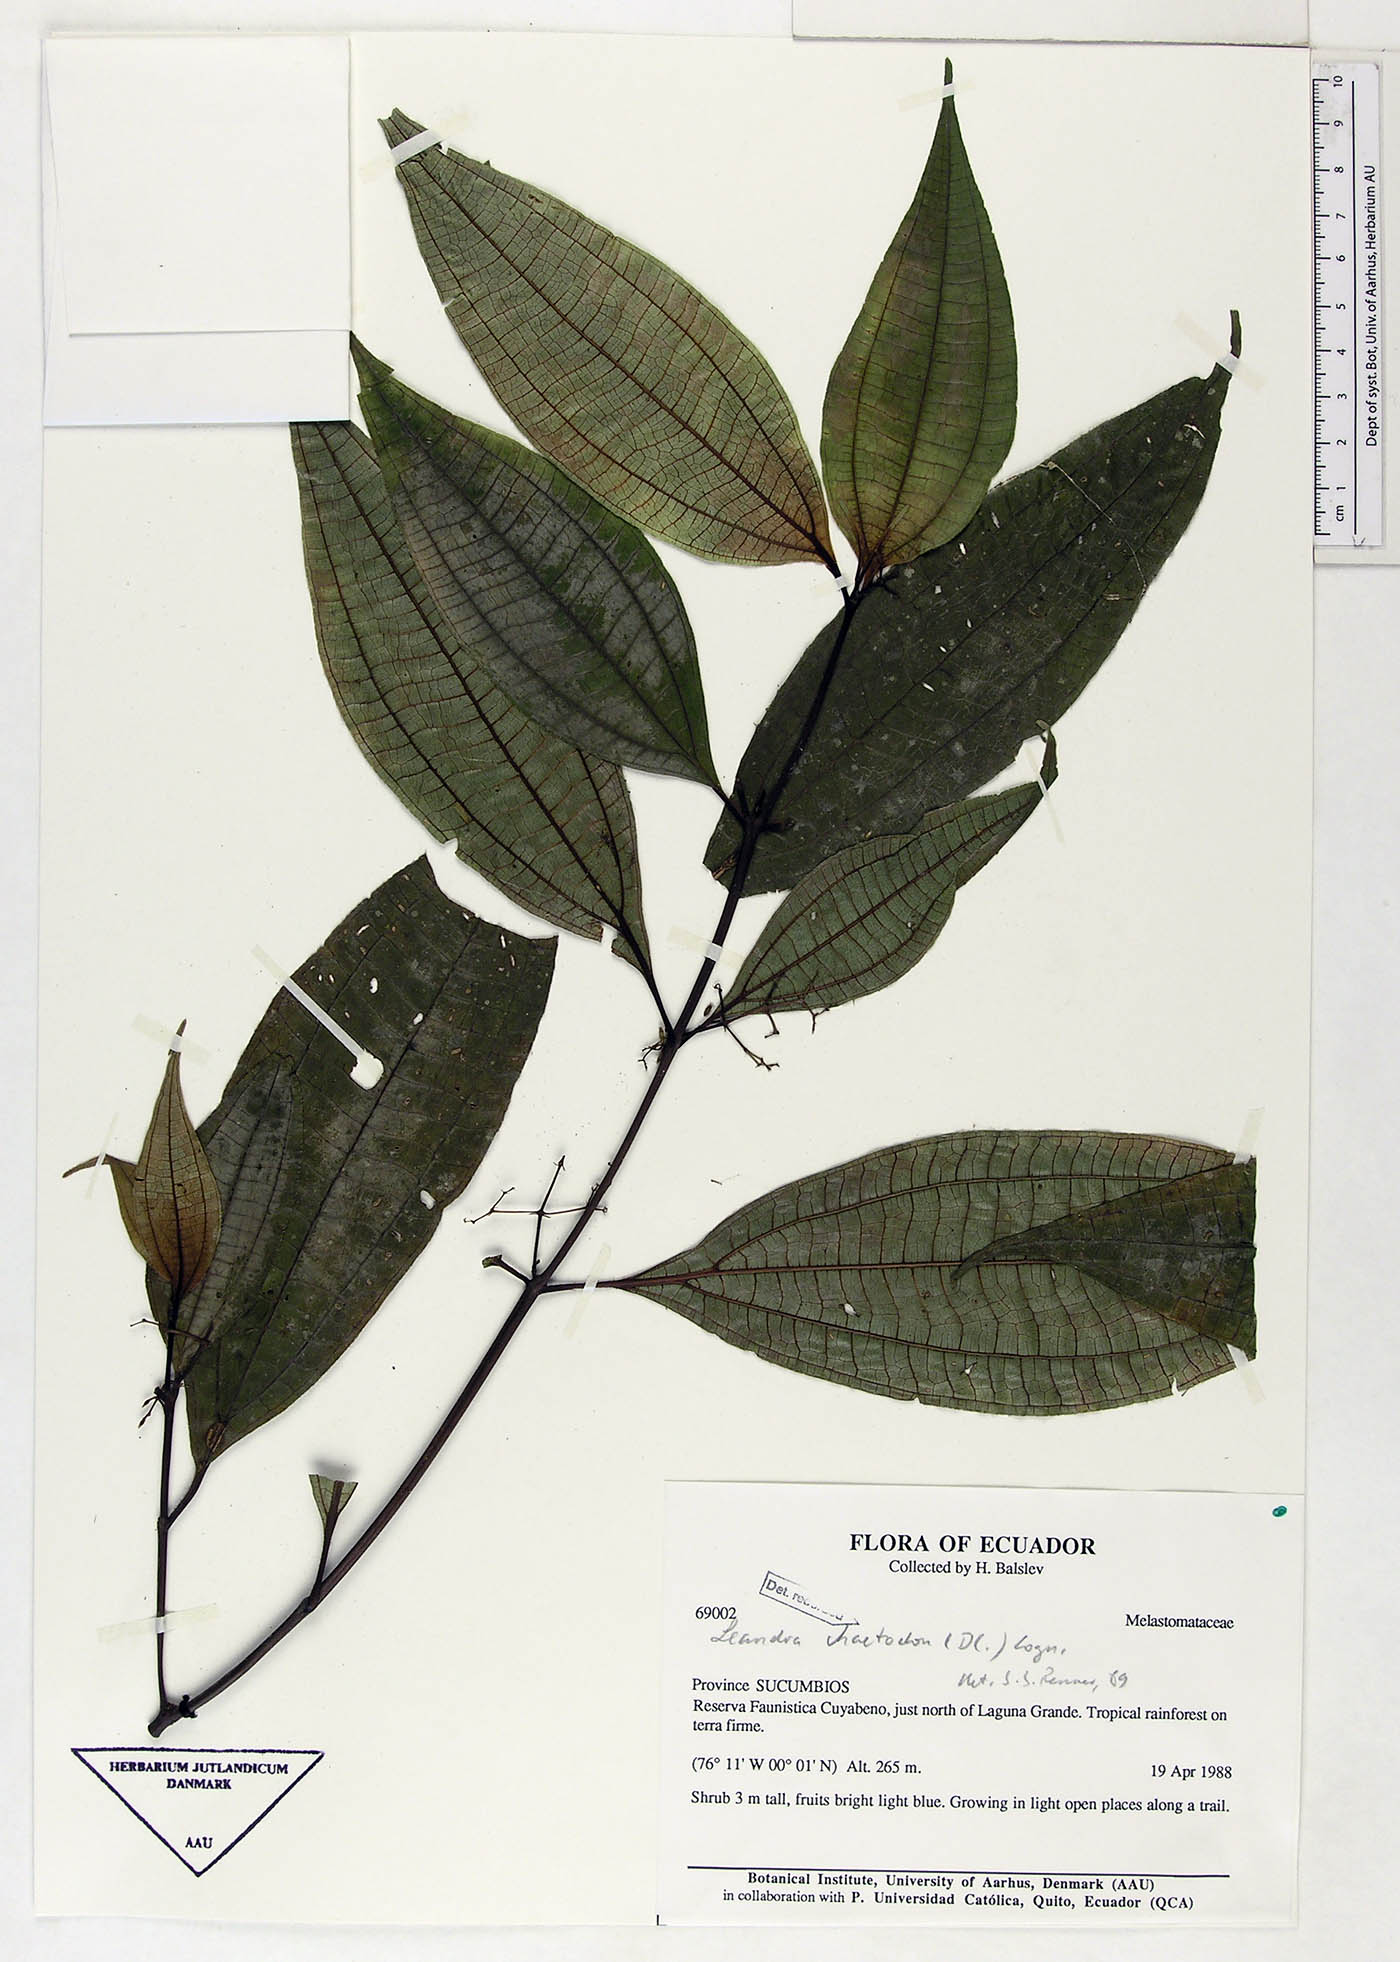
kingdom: Plantae
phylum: Tracheophyta
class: Magnoliopsida
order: Myrtales
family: Melastomataceae
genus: Miconia
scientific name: Miconia chaetodonta
